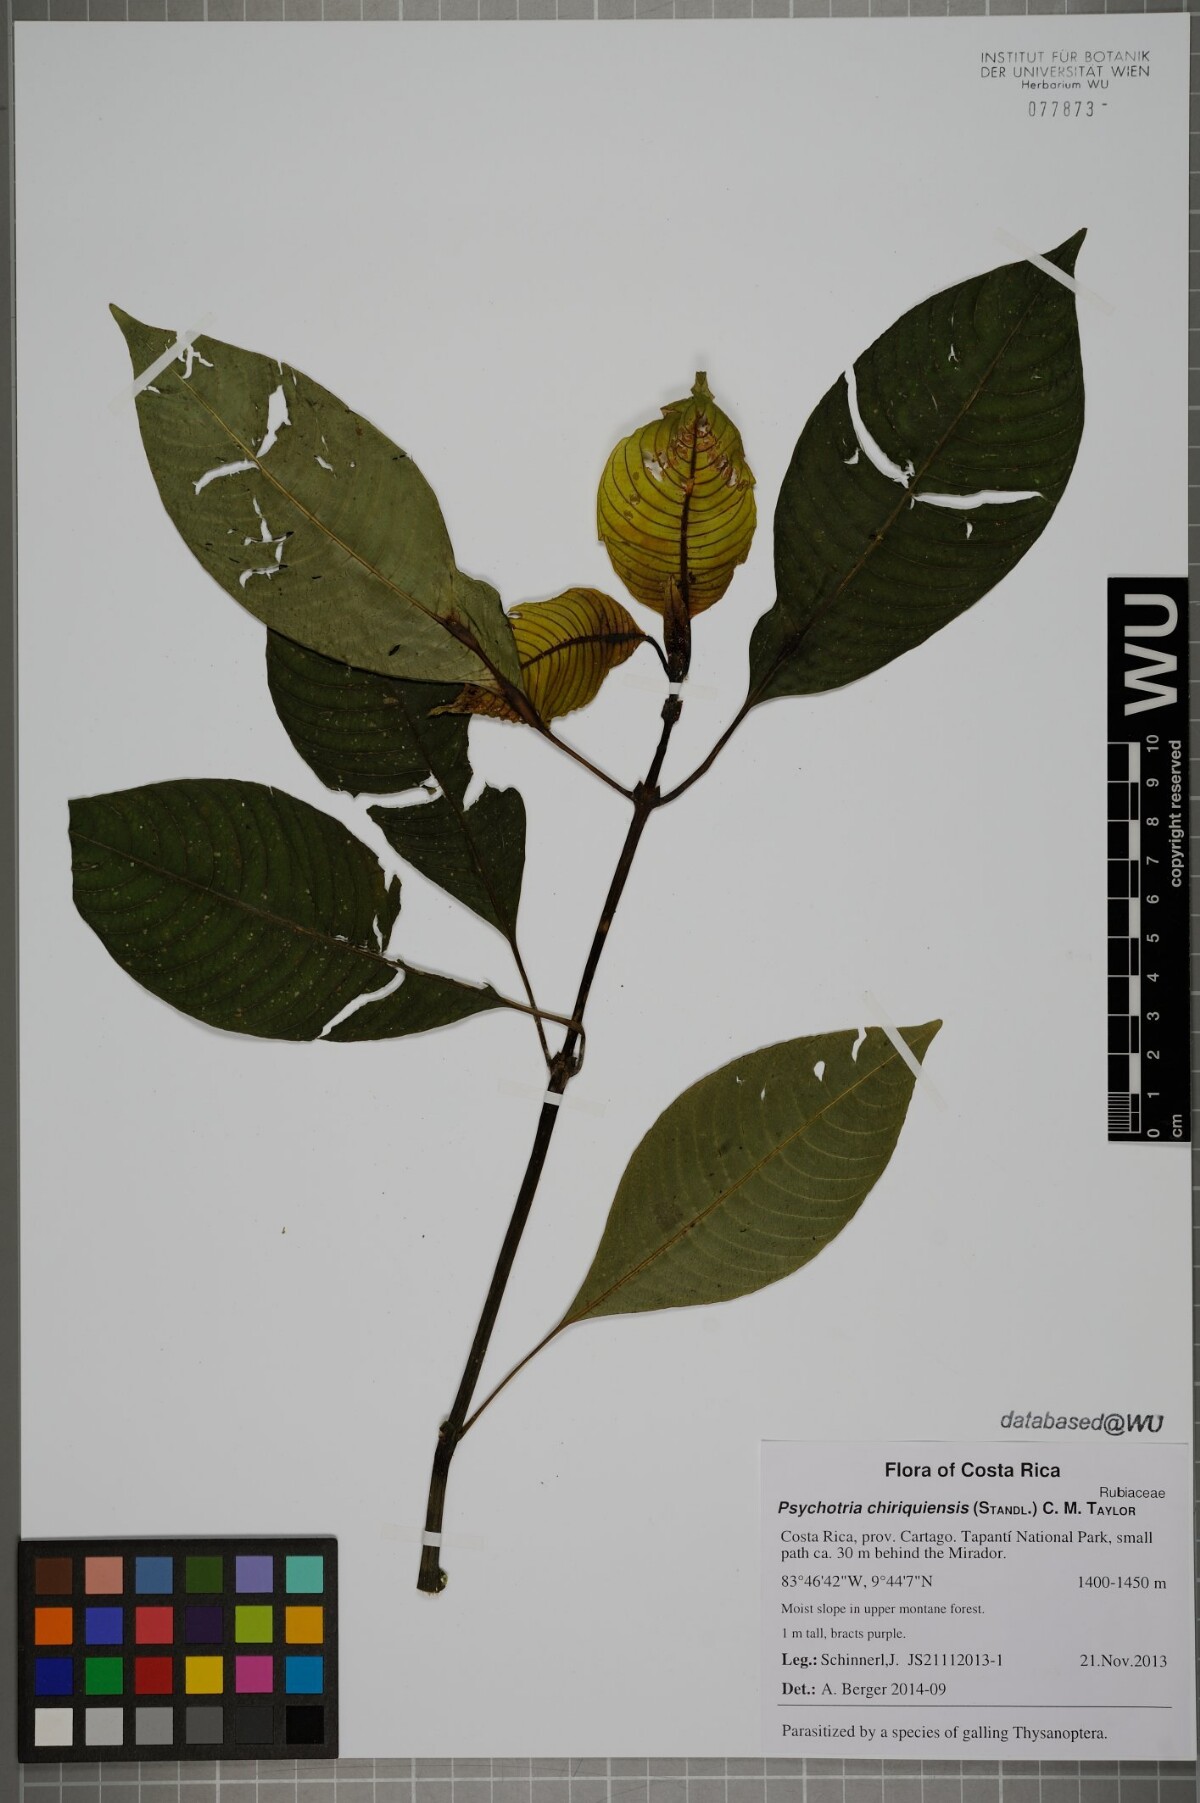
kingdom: Plantae
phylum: Tracheophyta
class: Magnoliopsida
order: Gentianales
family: Rubiaceae
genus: Palicourea
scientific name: Palicourea chiriquiensis
